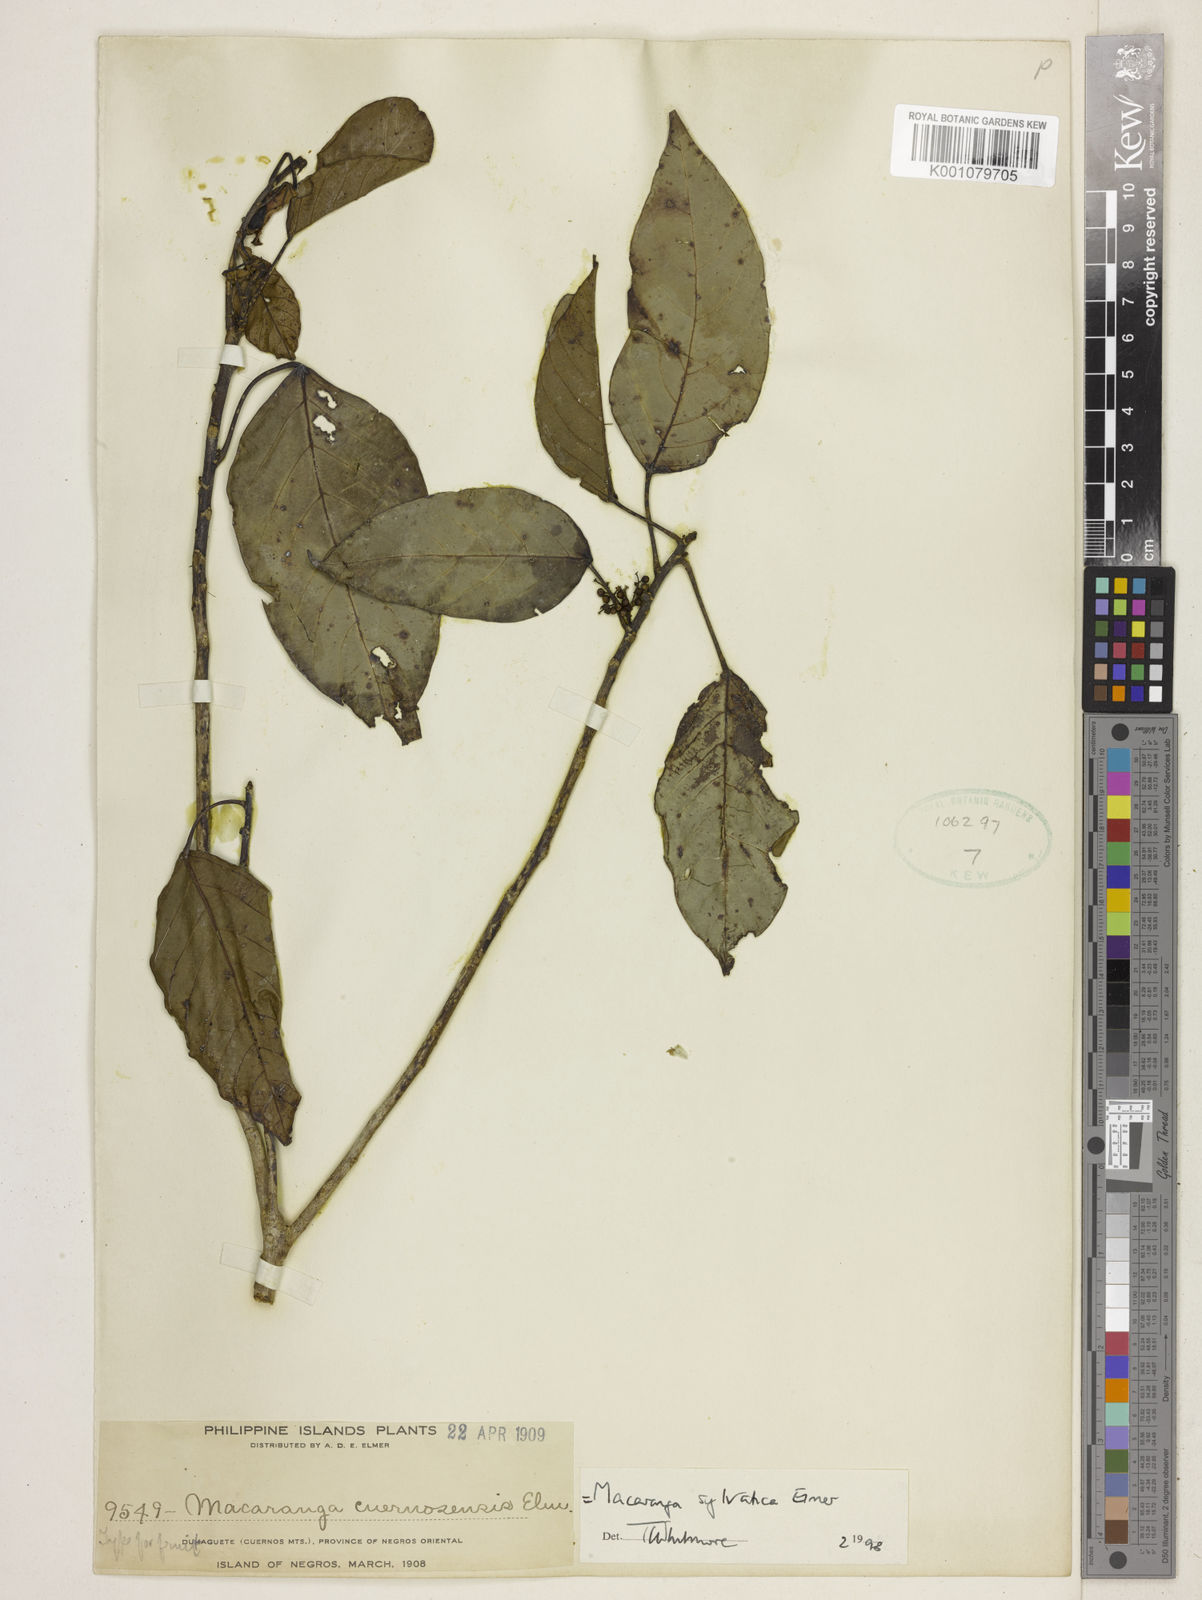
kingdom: Plantae
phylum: Tracheophyta
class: Magnoliopsida
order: Malpighiales
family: Euphorbiaceae
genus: Macaranga
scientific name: Macaranga sylvatica
